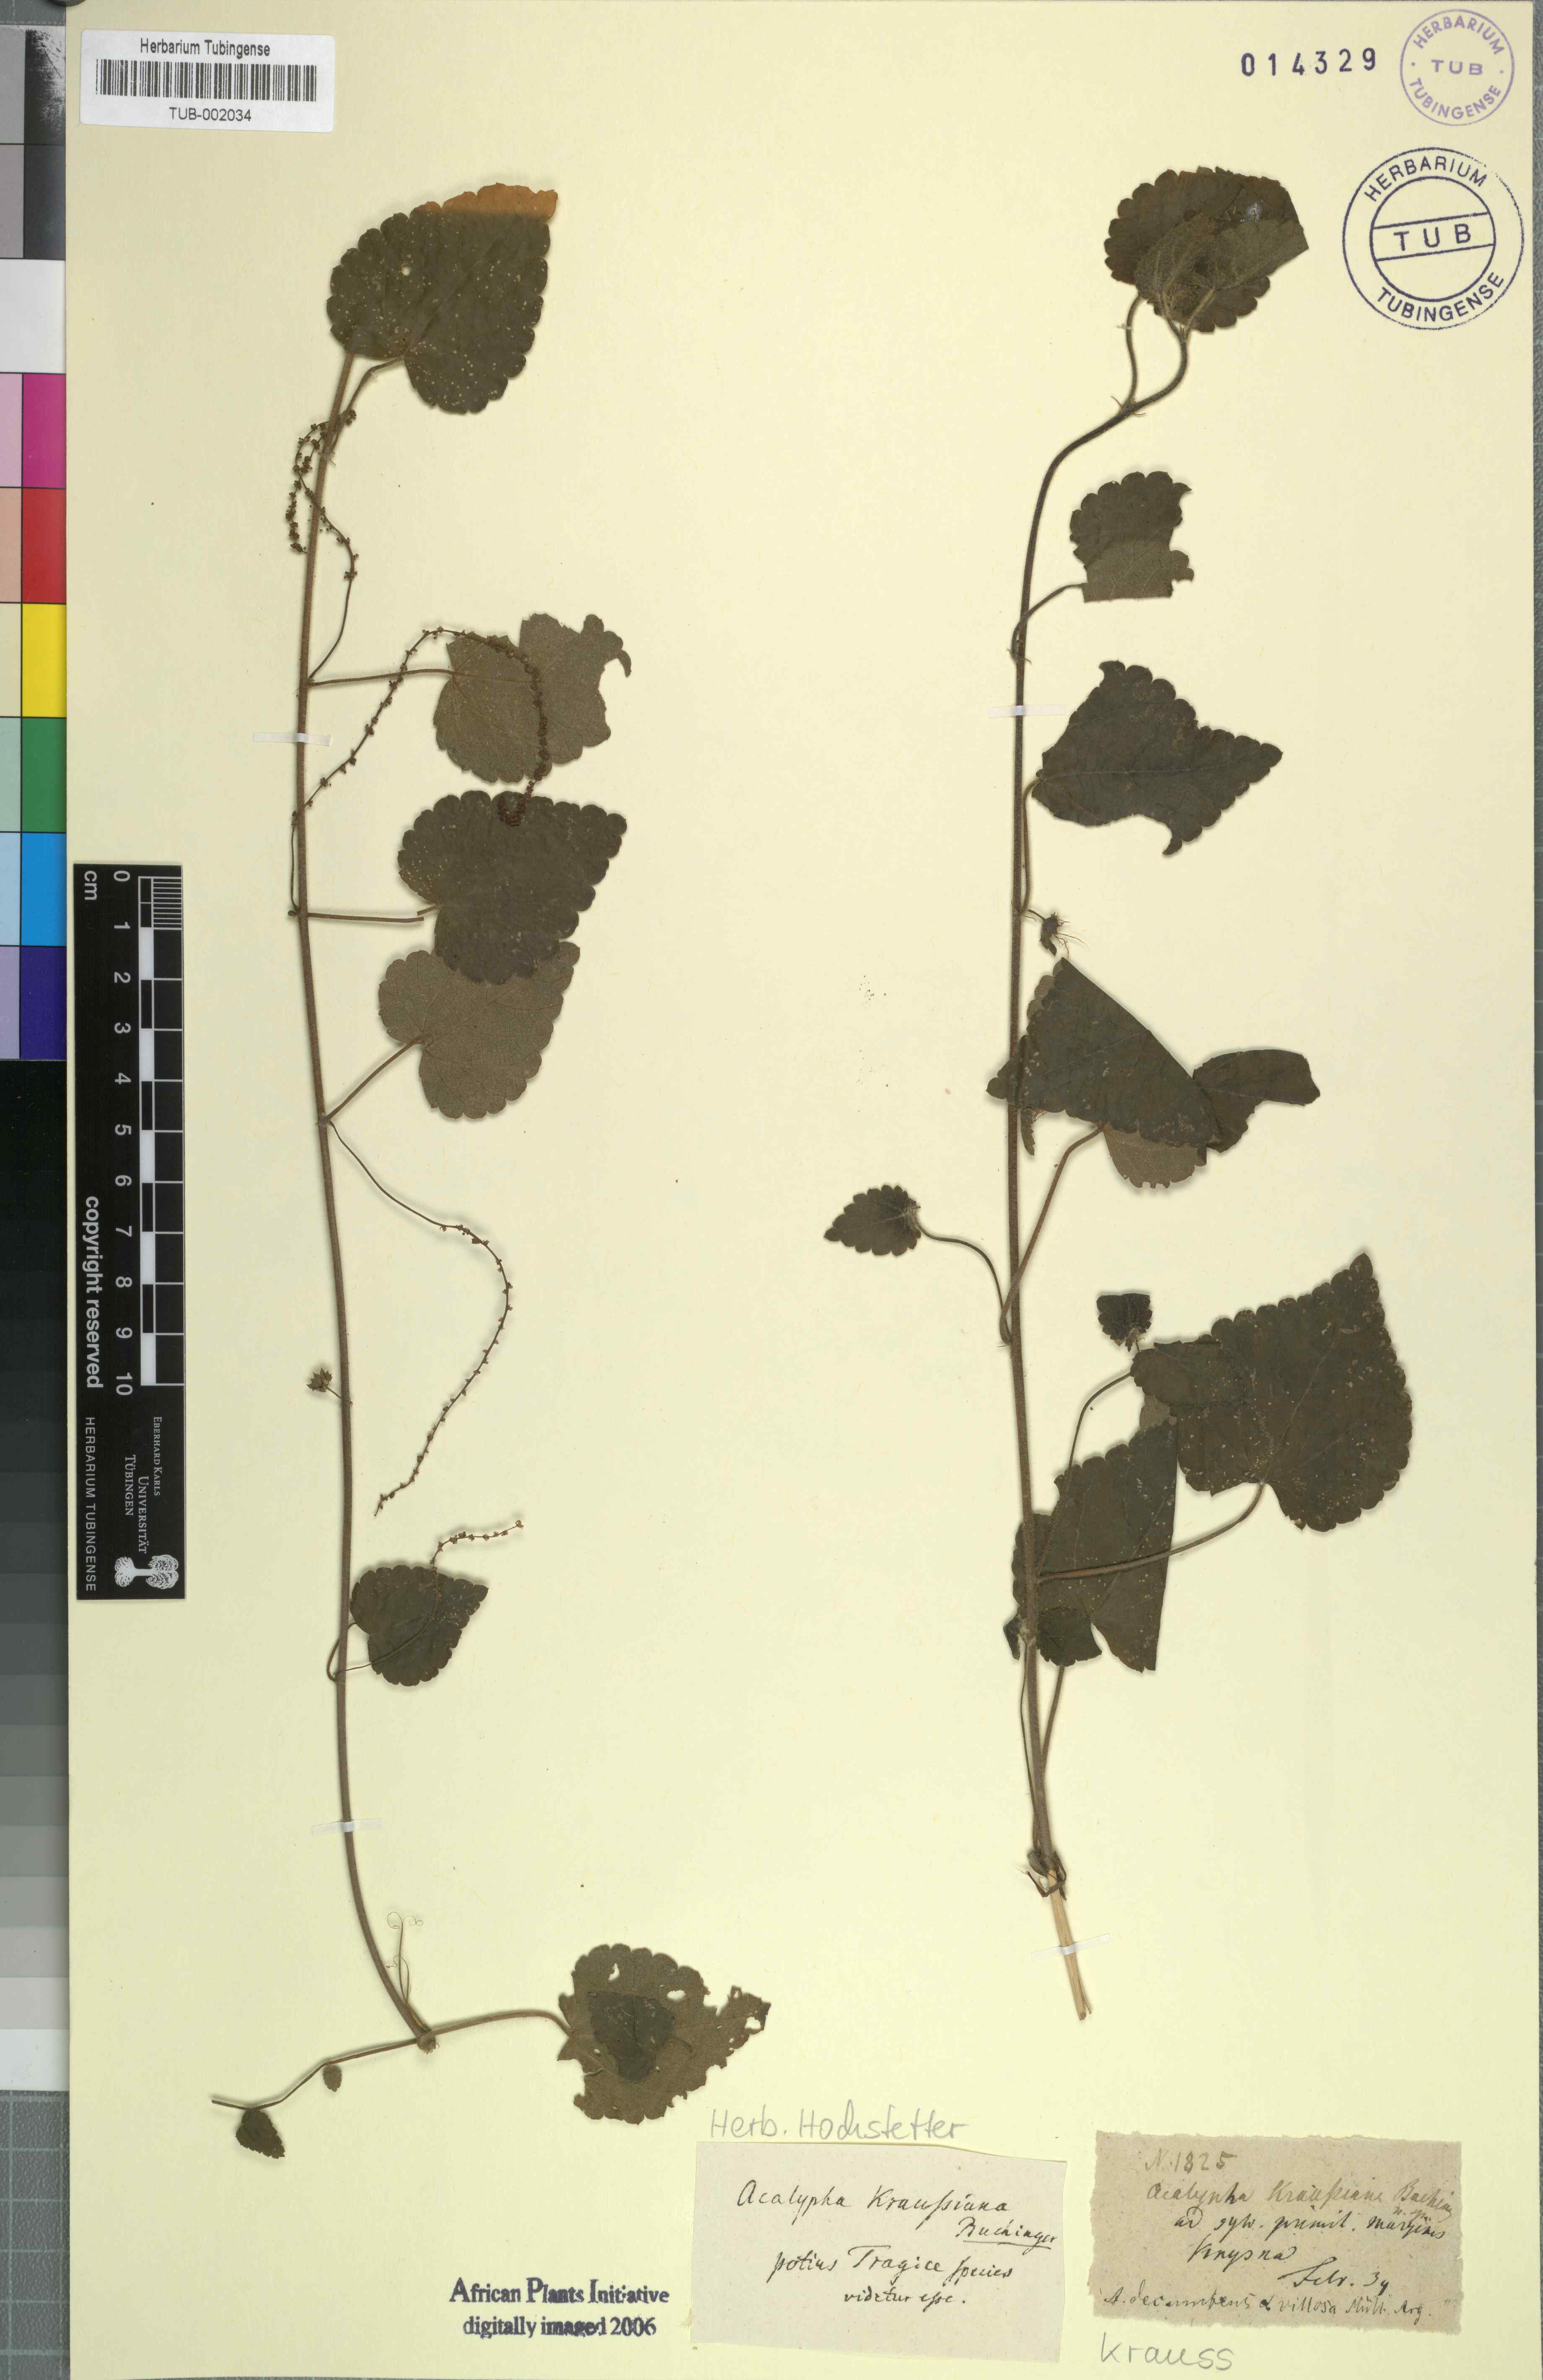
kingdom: Plantae
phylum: Tracheophyta
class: Magnoliopsida
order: Rosales
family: Urticaceae
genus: Didymodoxa
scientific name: Didymodoxa capensis
